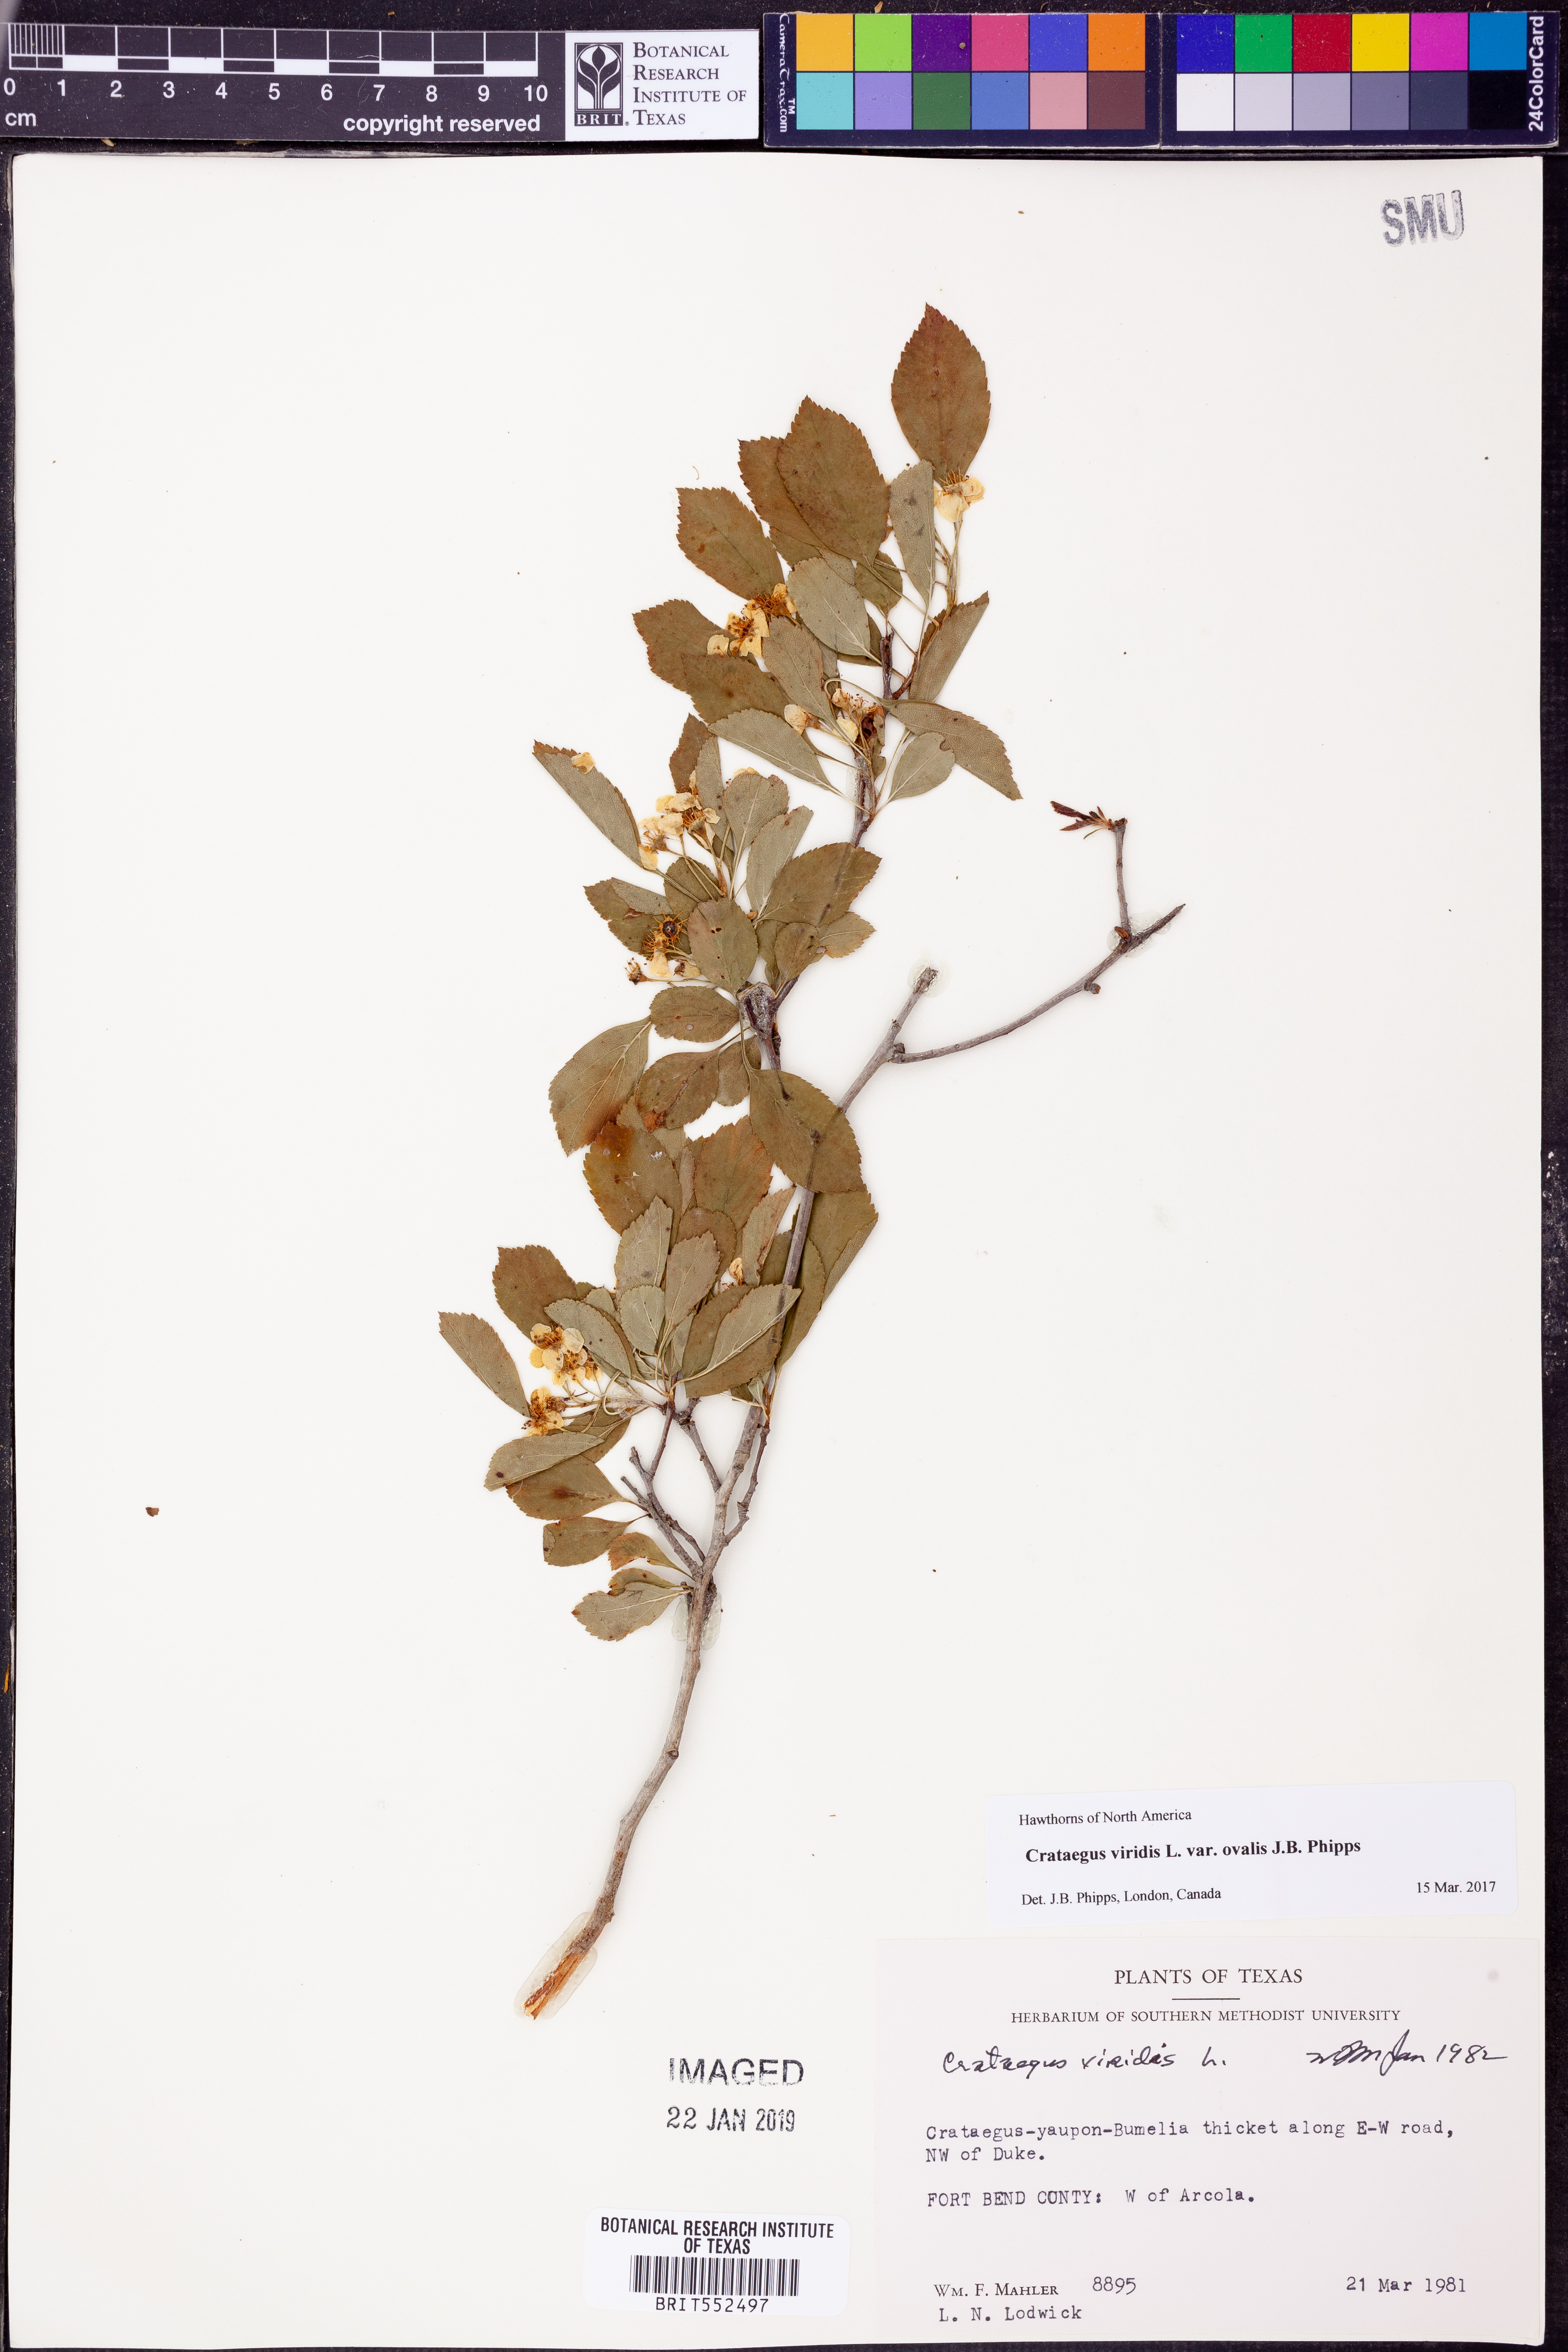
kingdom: Plantae
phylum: Tracheophyta
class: Magnoliopsida
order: Rosales
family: Rosaceae
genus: Crataegus
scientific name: Crataegus viridis
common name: Southernthorn
